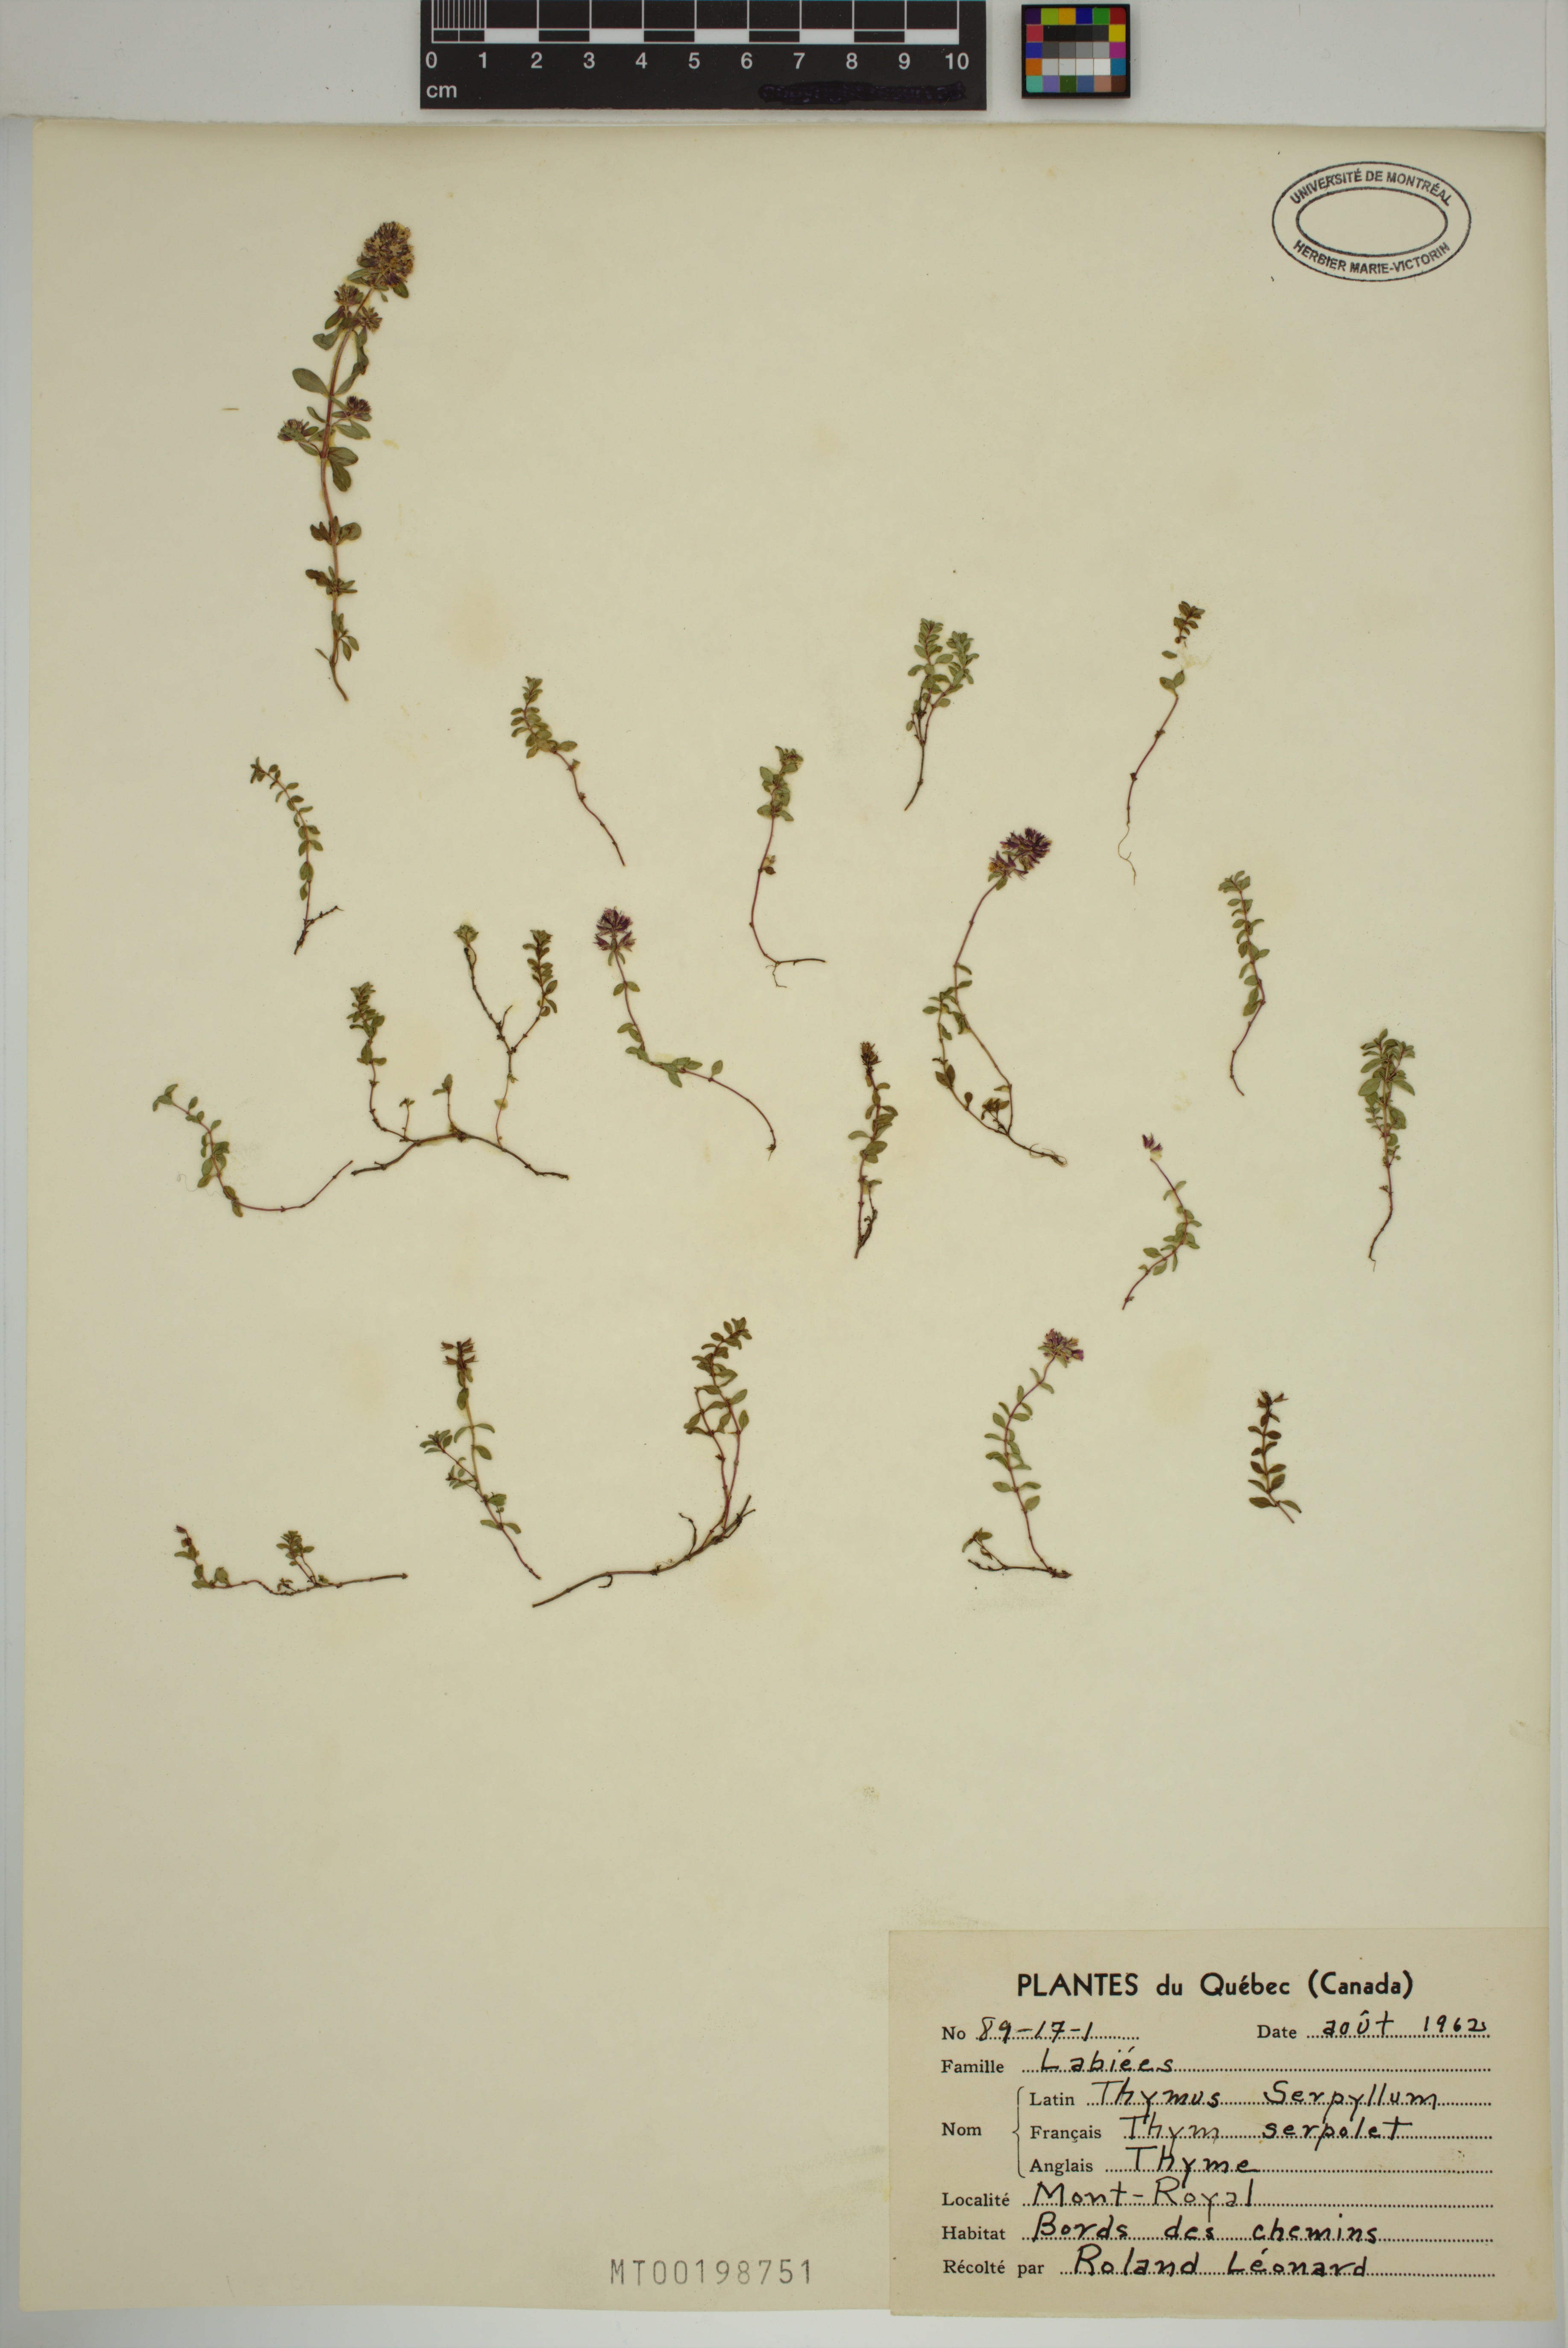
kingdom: Plantae
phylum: Tracheophyta
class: Magnoliopsida
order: Lamiales
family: Lamiaceae
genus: Thymus
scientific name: Thymus serpyllum
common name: Breckland thyme
